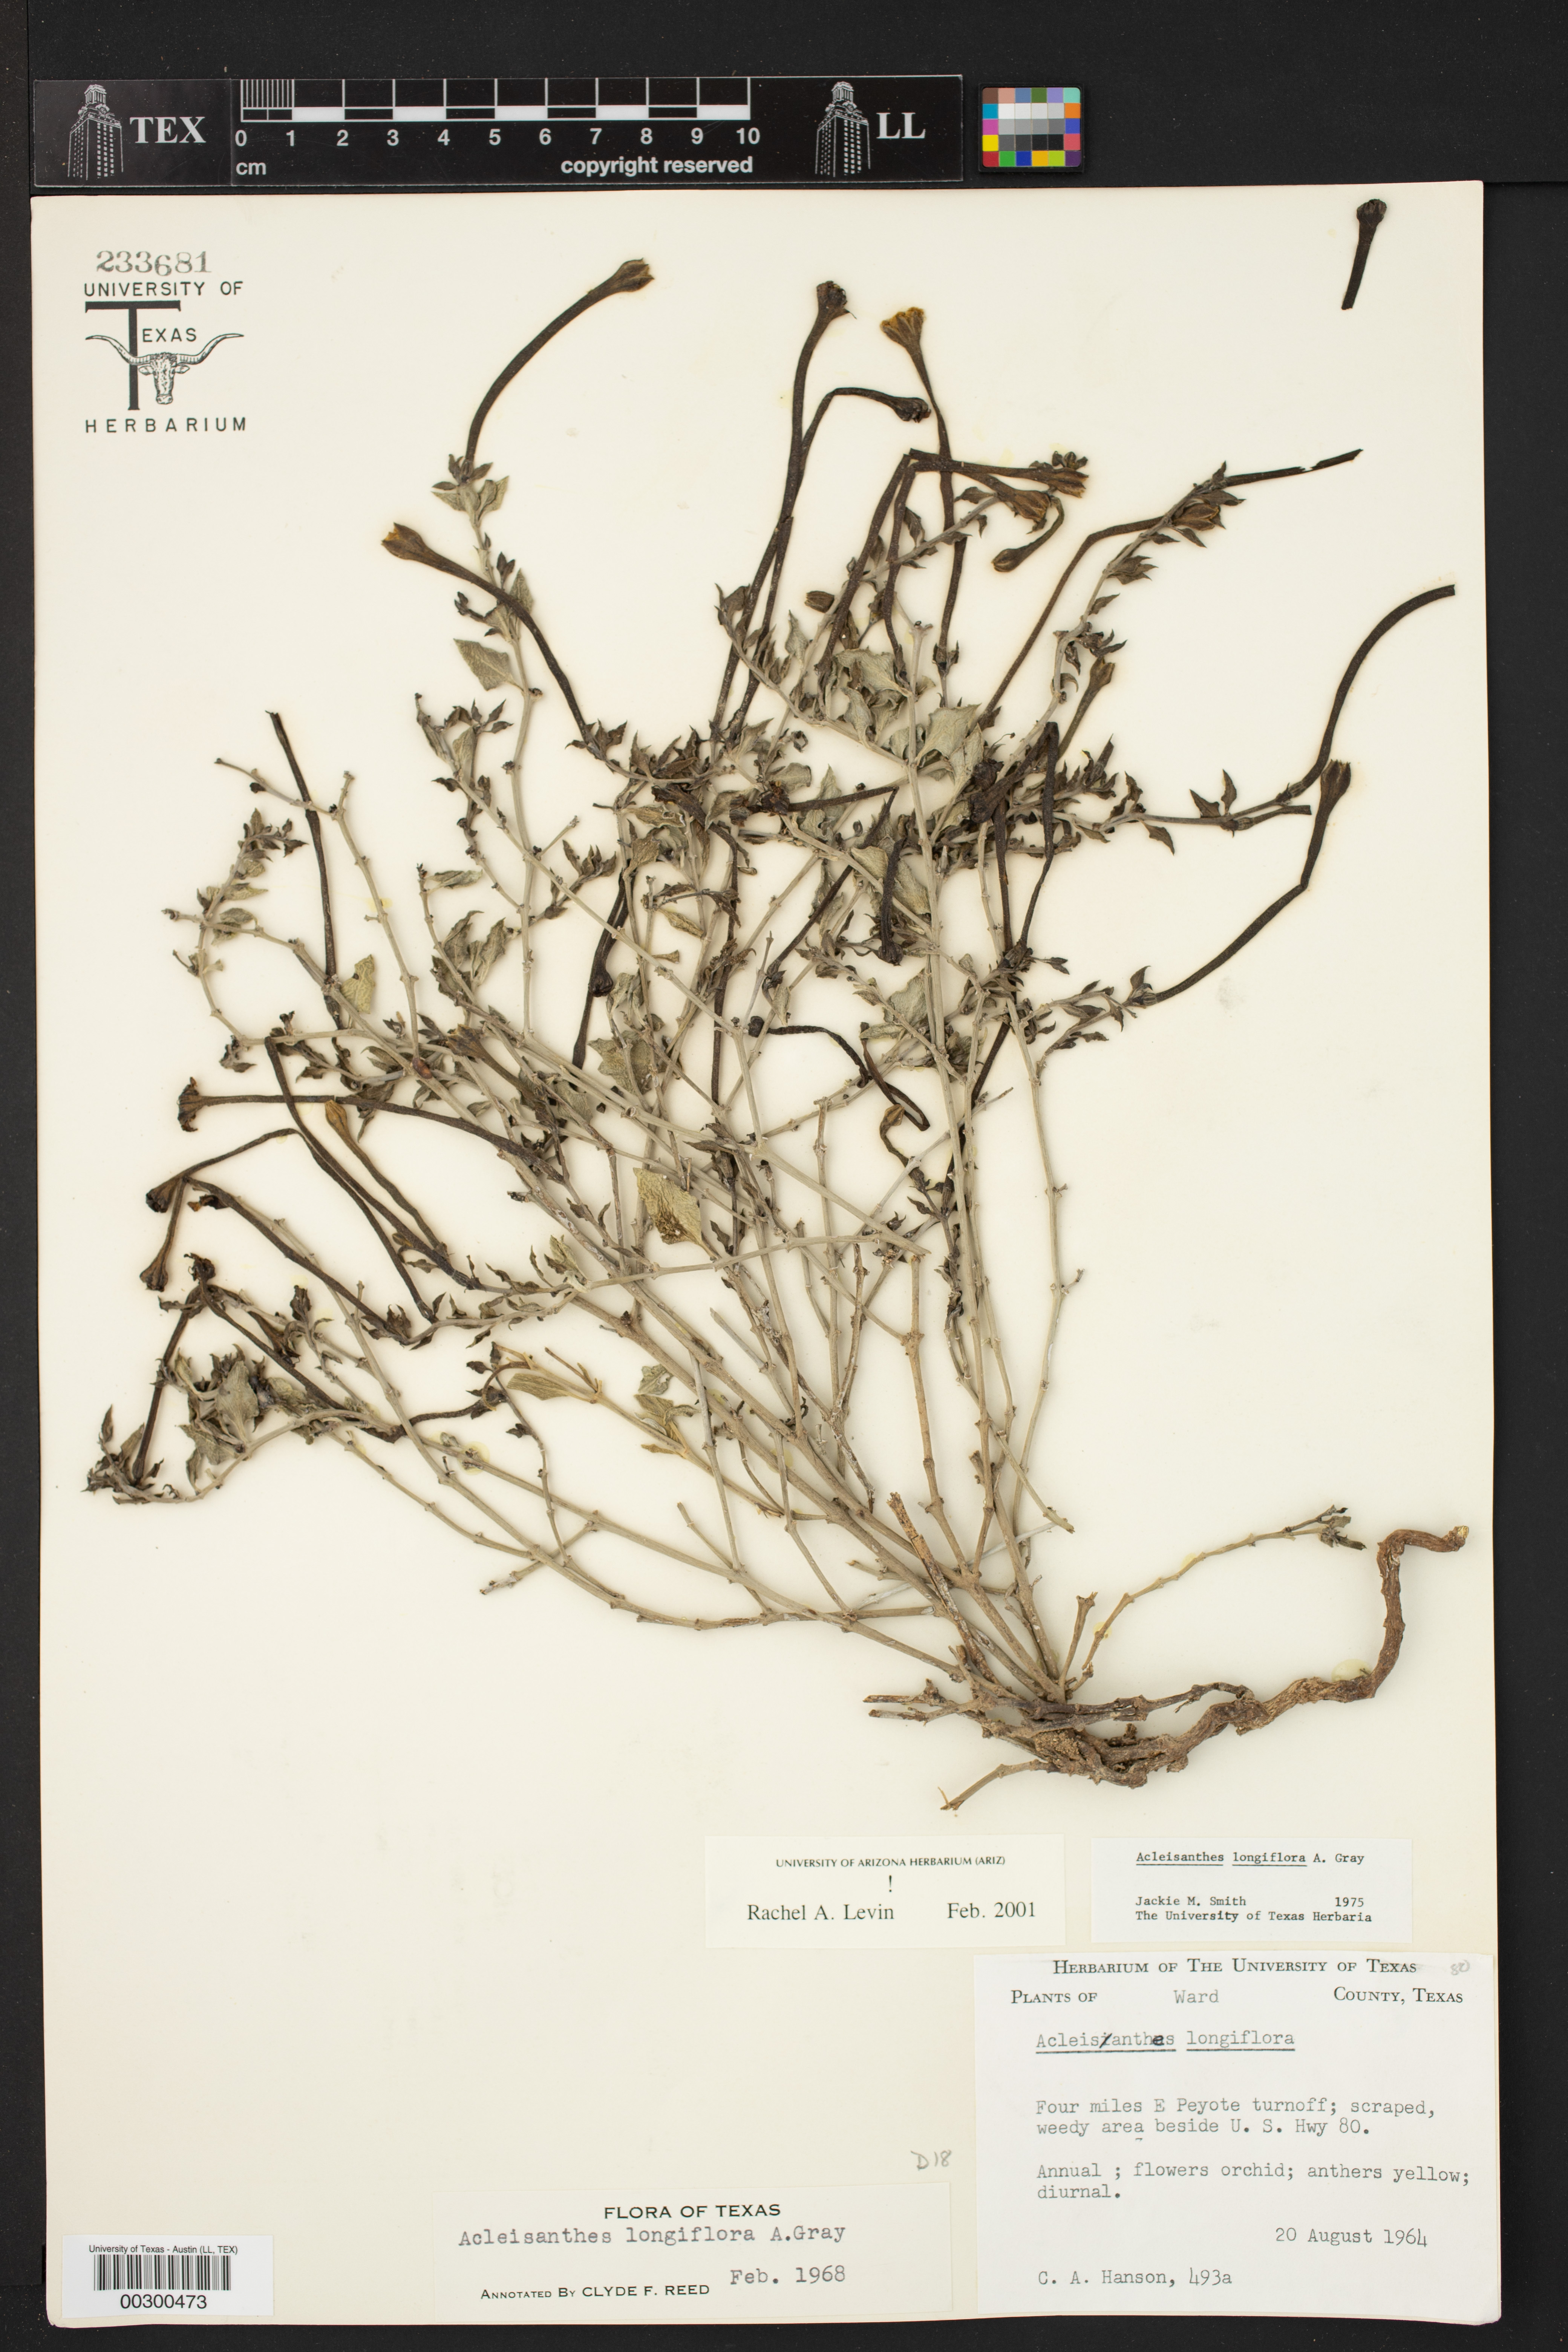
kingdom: Plantae
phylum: Tracheophyta
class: Magnoliopsida
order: Caryophyllales
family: Nyctaginaceae
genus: Acleisanthes
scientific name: Acleisanthes longiflora
